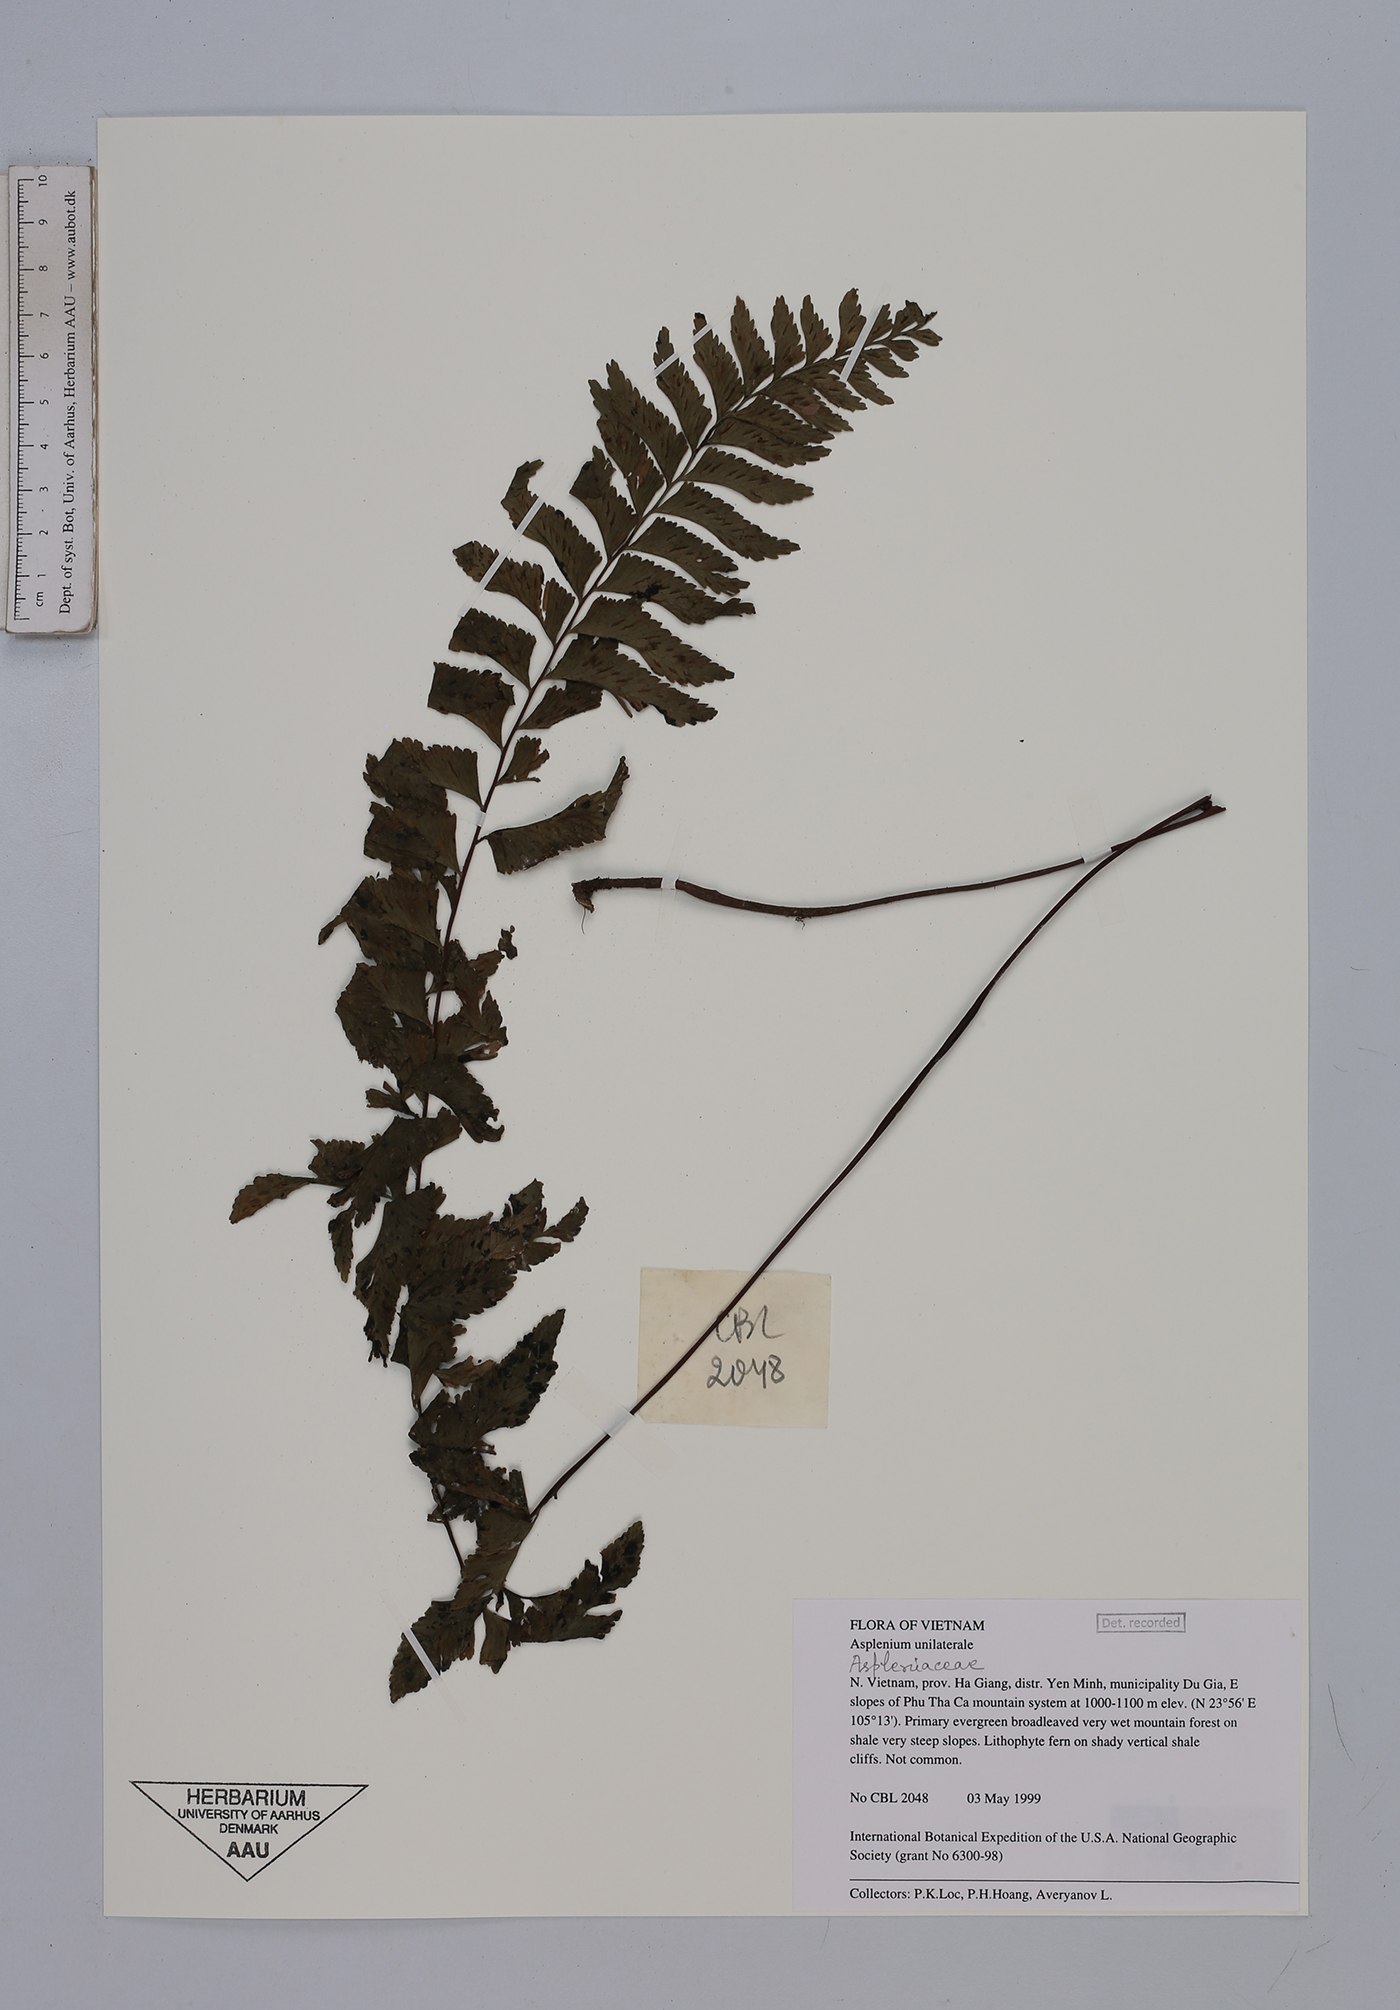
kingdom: Plantae
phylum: Tracheophyta
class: Polypodiopsida
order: Polypodiales
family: Aspleniaceae
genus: Hymenasplenium
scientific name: Hymenasplenium unilaterale
